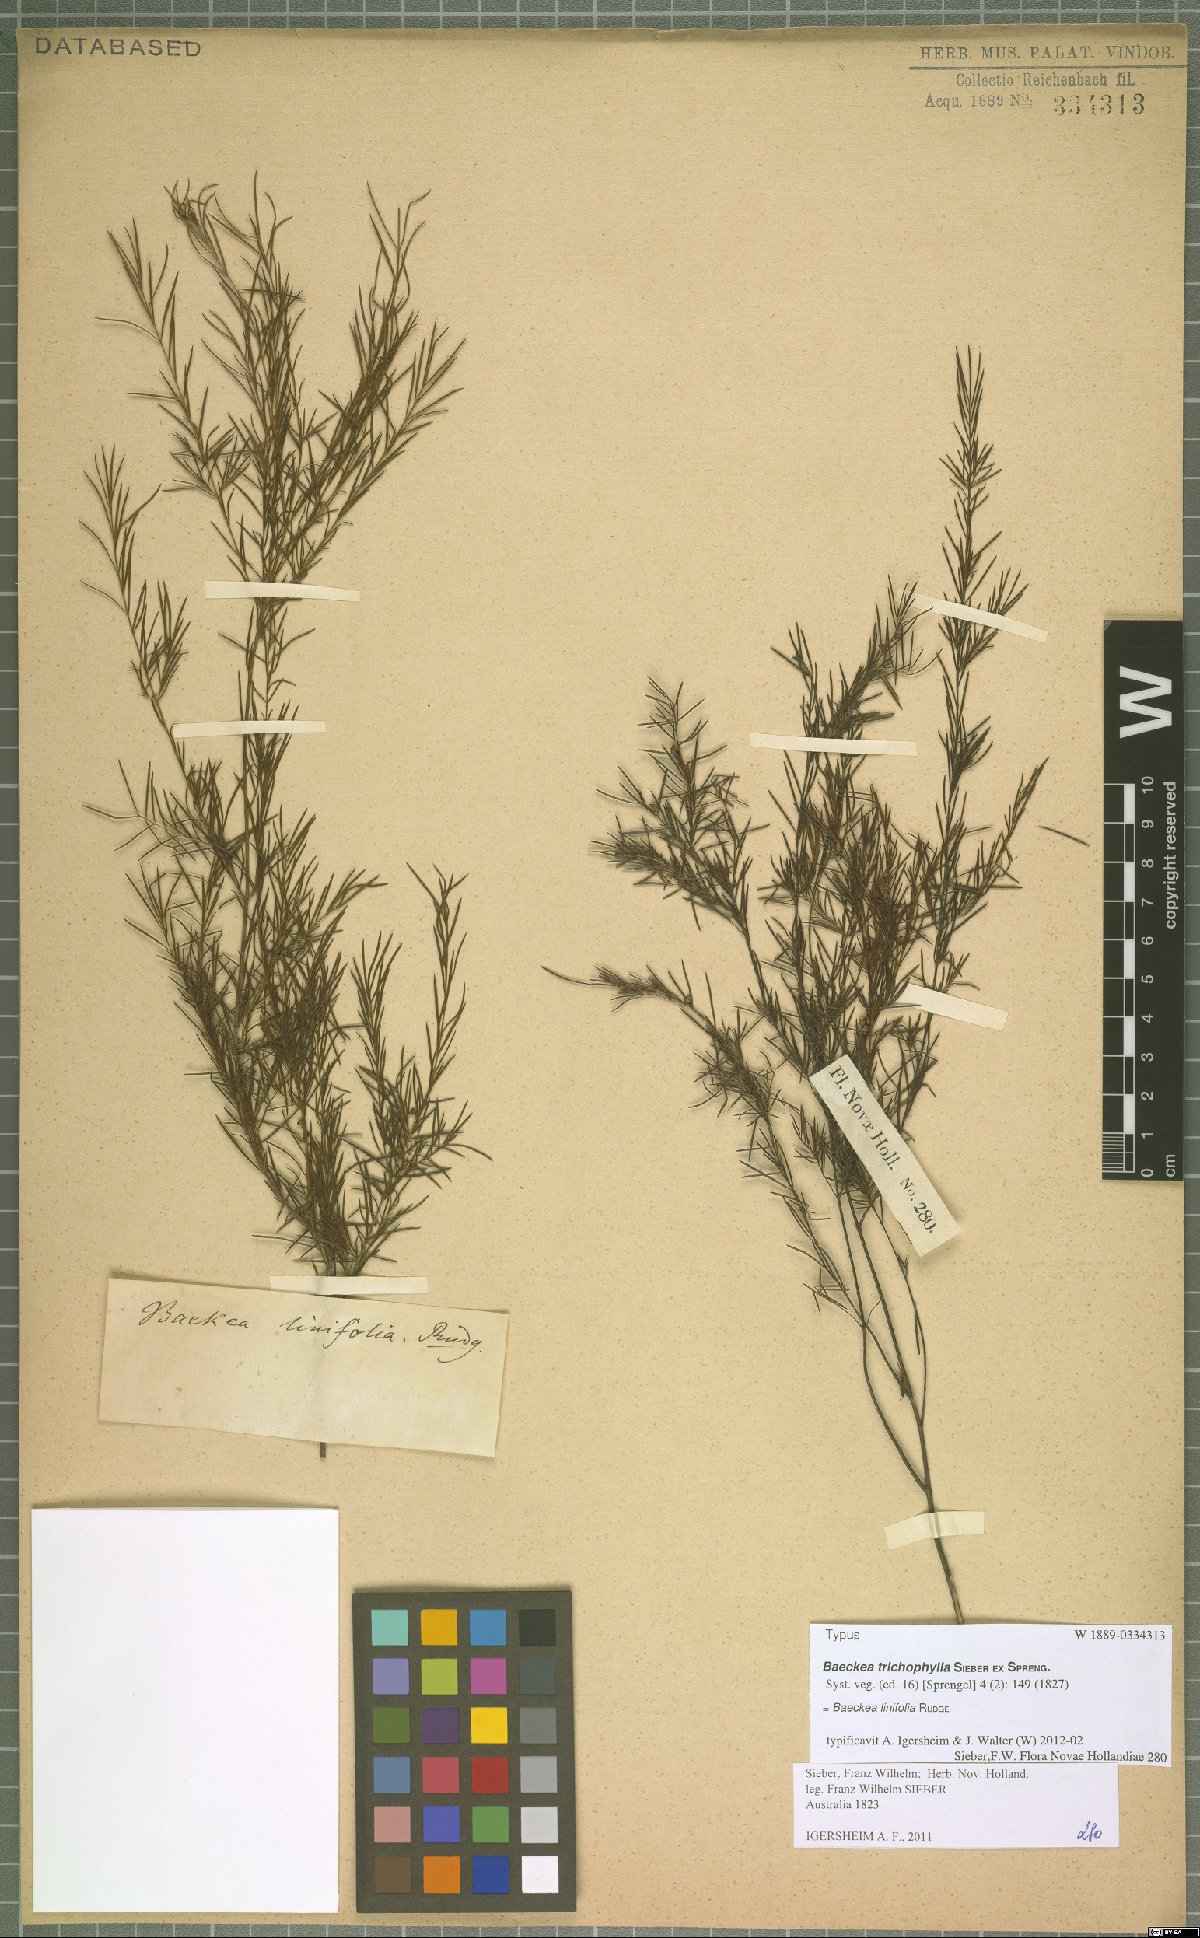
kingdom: Plantae
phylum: Tracheophyta
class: Magnoliopsida
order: Myrtales
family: Myrtaceae
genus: Baeckea
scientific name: Baeckea linifolia
